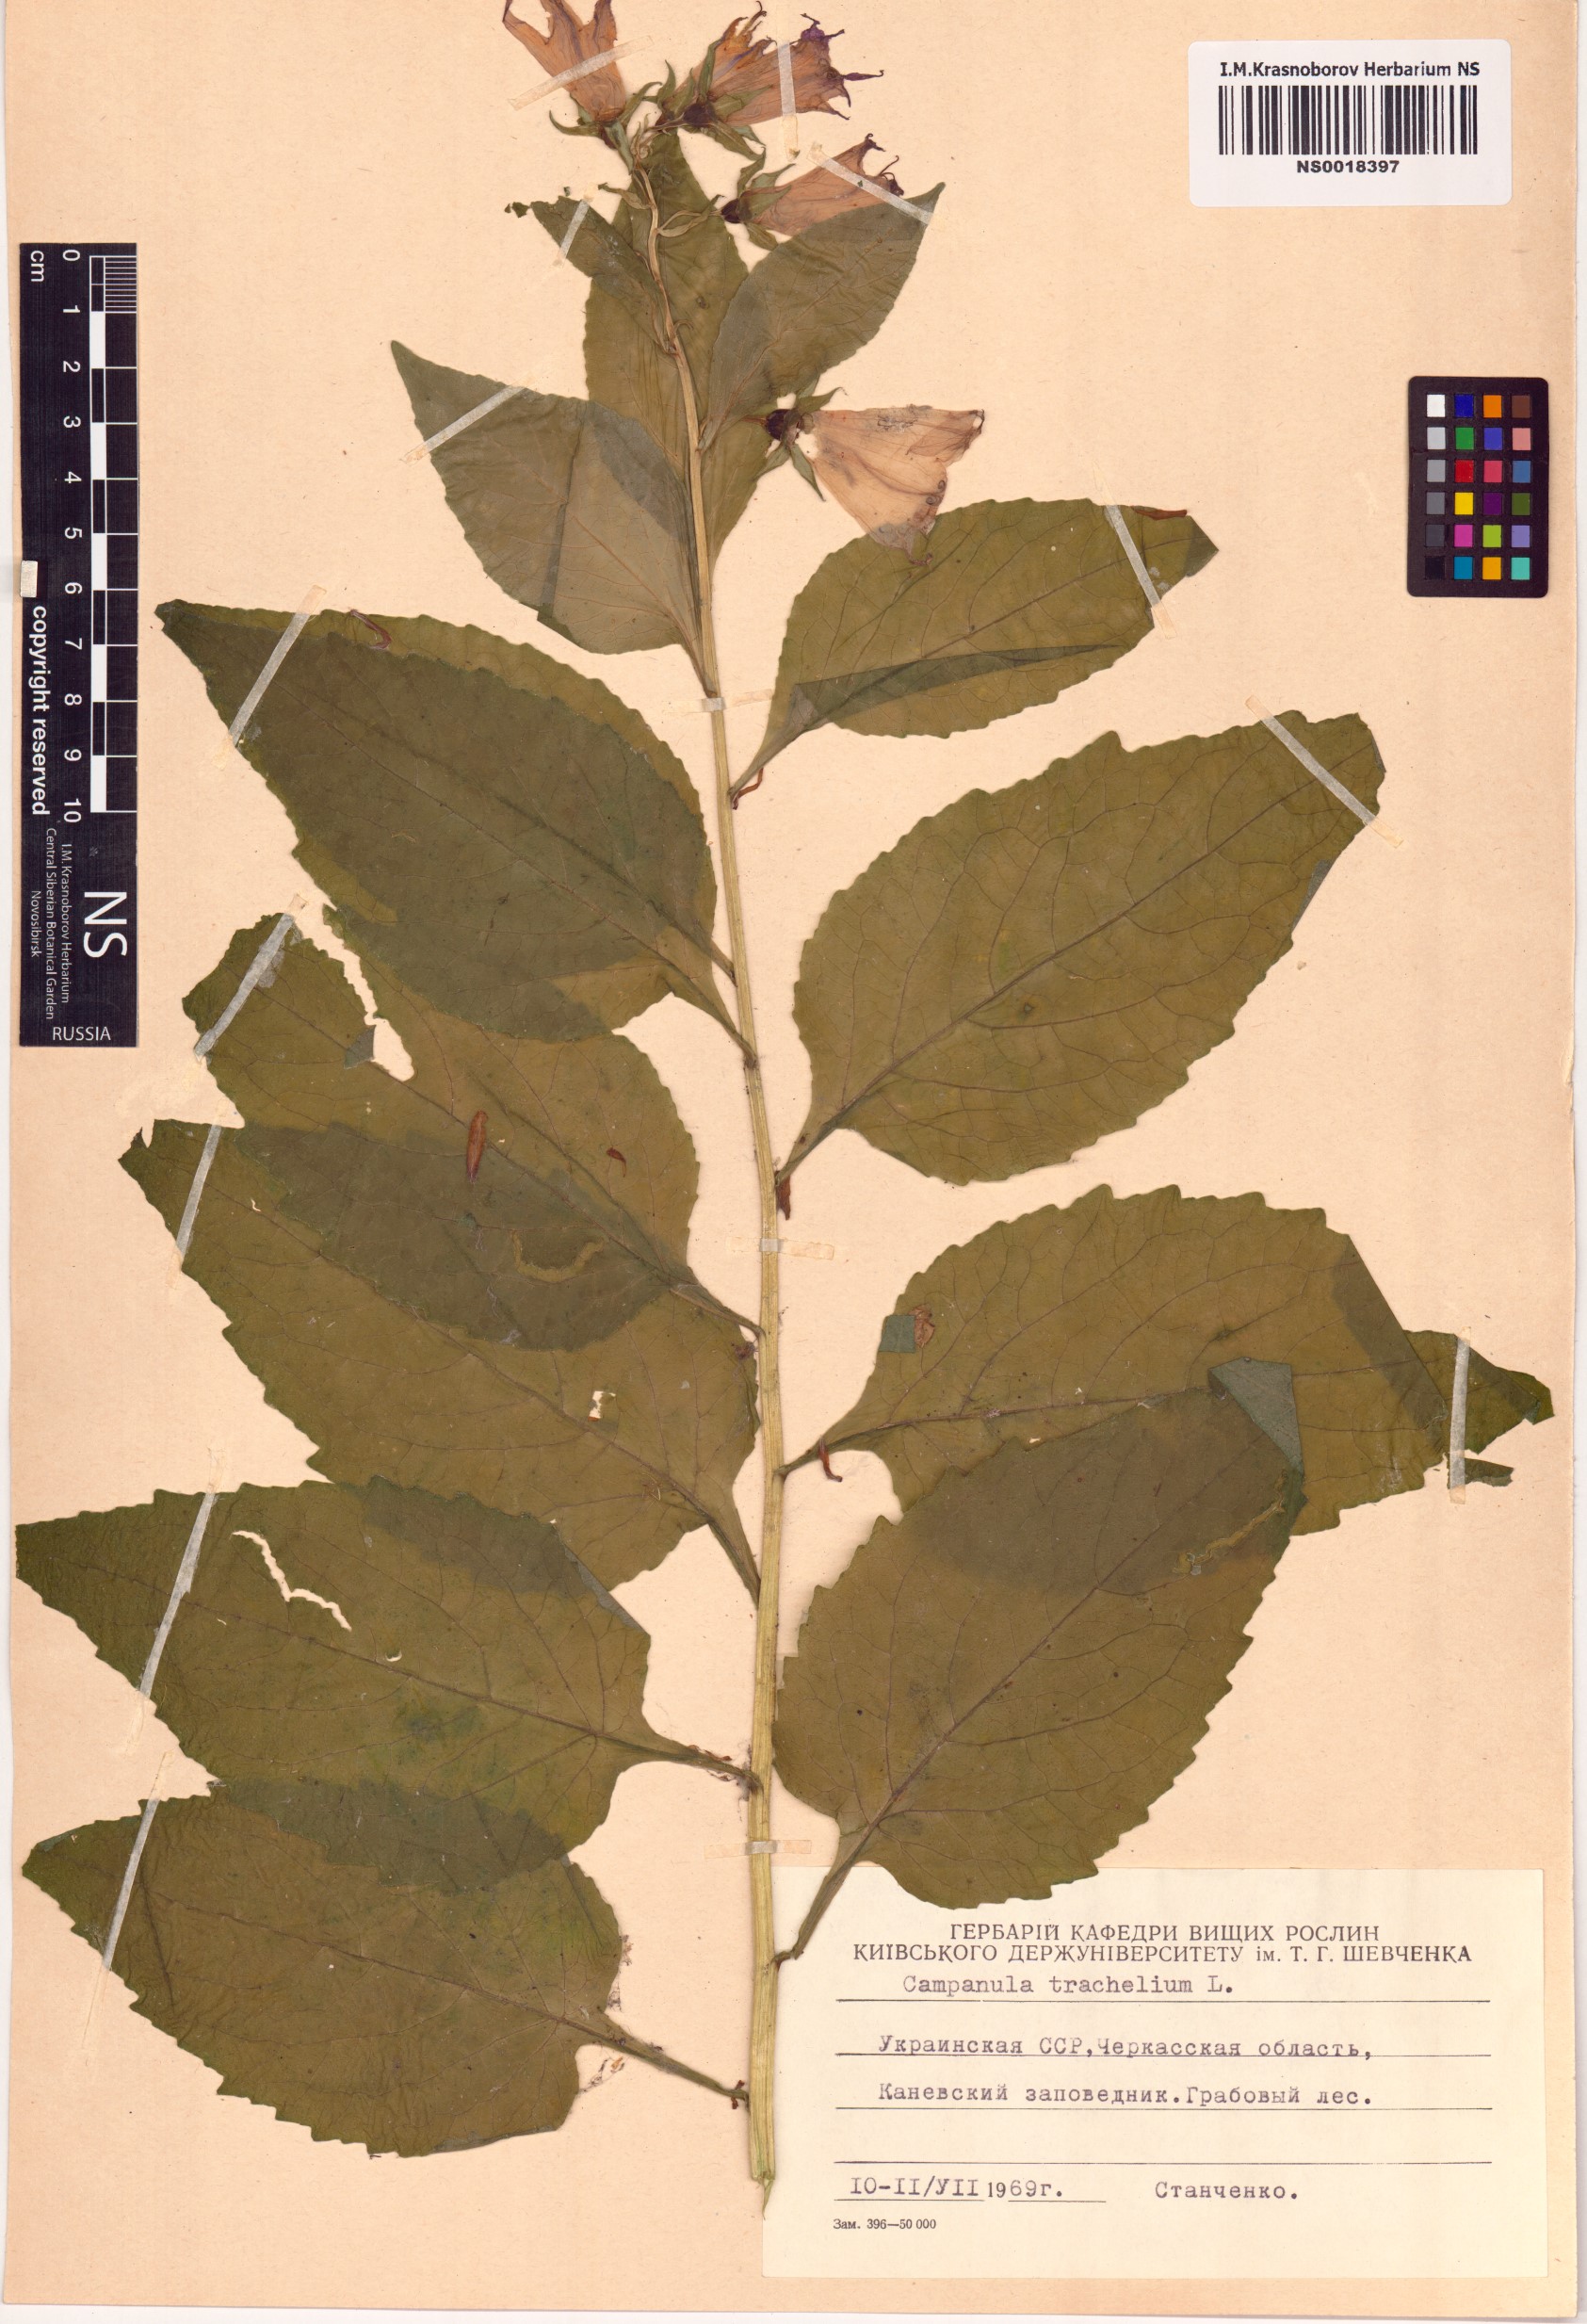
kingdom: Plantae
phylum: Tracheophyta
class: Magnoliopsida
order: Asterales
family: Campanulaceae
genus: Campanula
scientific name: Campanula trachelium
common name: Nettle-leaved bellflower
